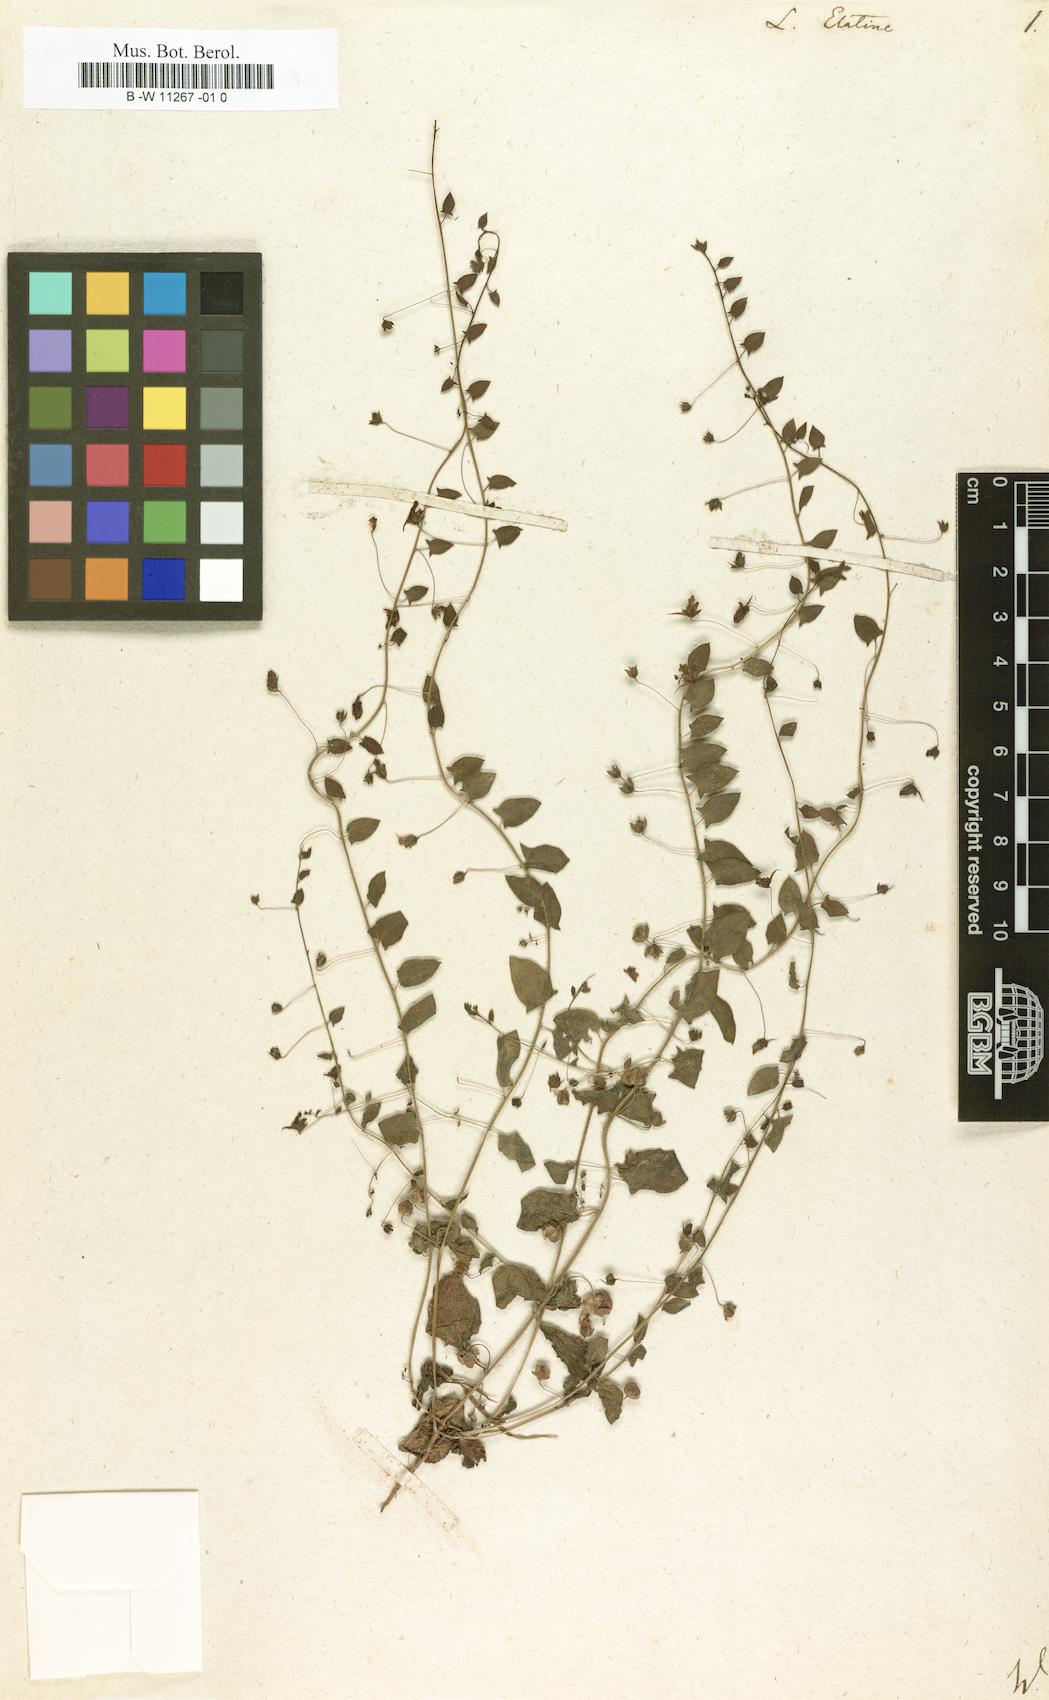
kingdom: Plantae
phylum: Tracheophyta
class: Magnoliopsida
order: Lamiales
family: Plantaginaceae
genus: Kickxia
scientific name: Kickxia
